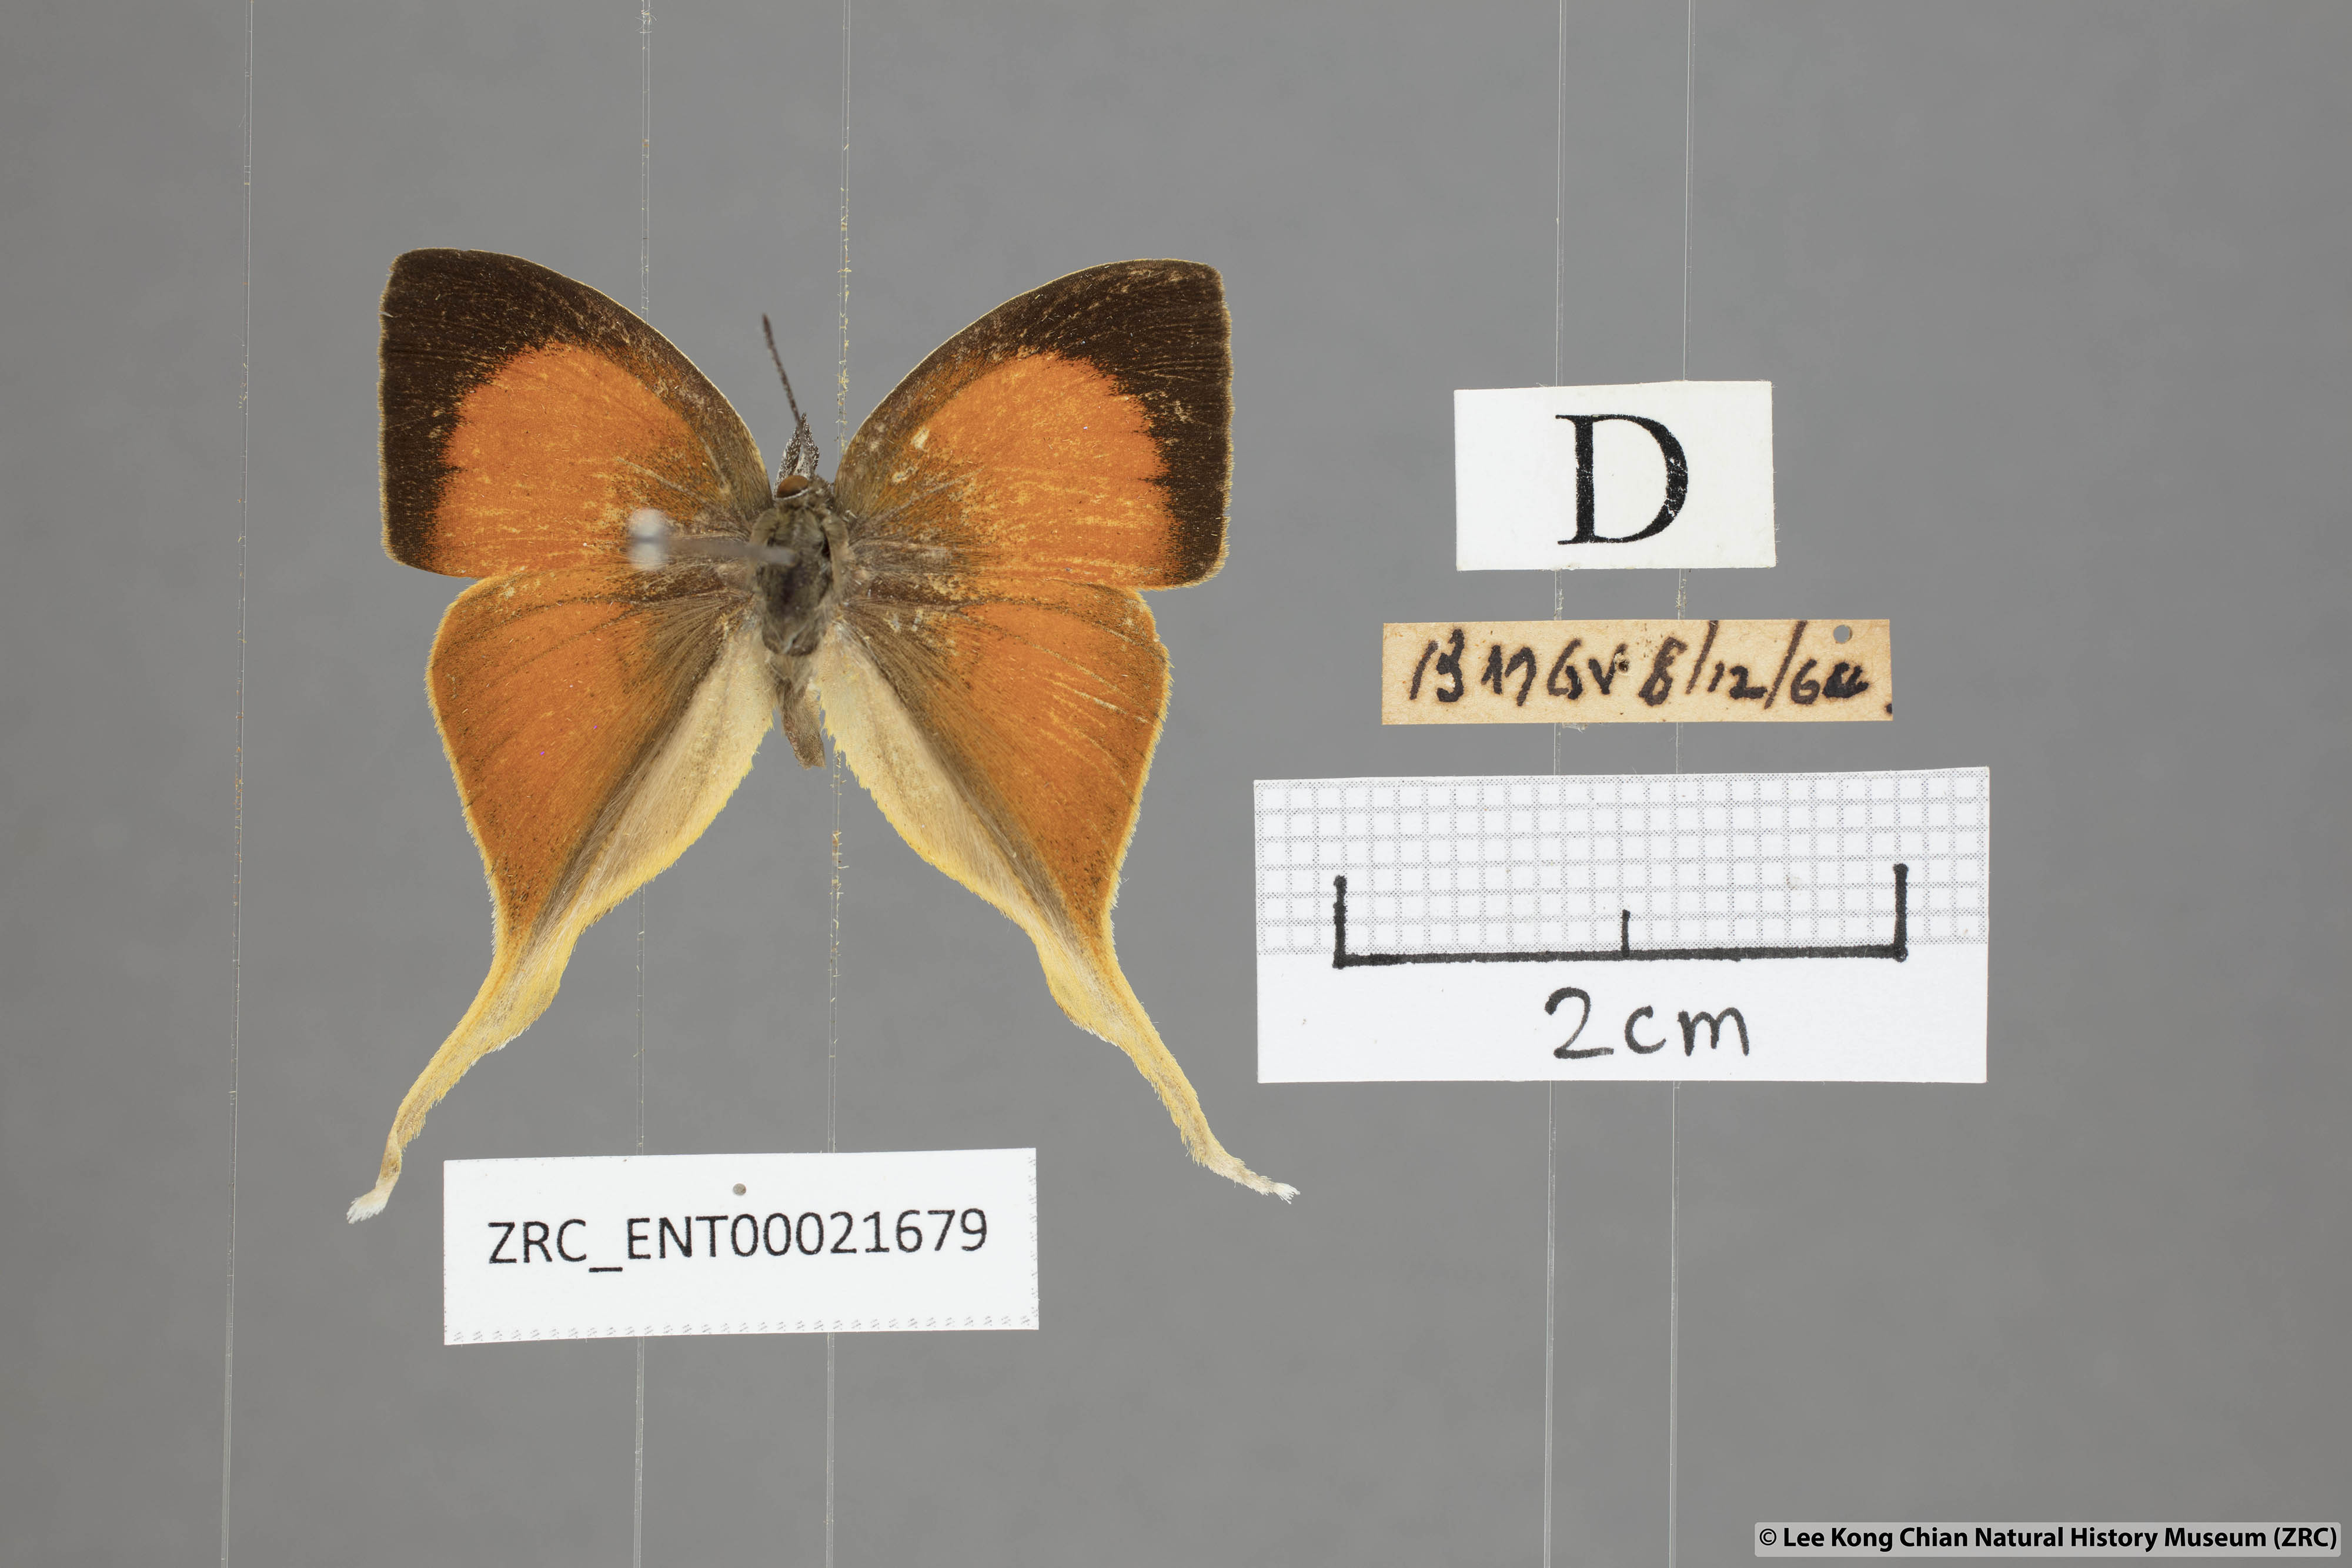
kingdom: Animalia
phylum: Arthropoda
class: Insecta
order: Lepidoptera
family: Lycaenidae
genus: Loxura
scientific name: Loxura cassiopeia
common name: Malayan yamfly
